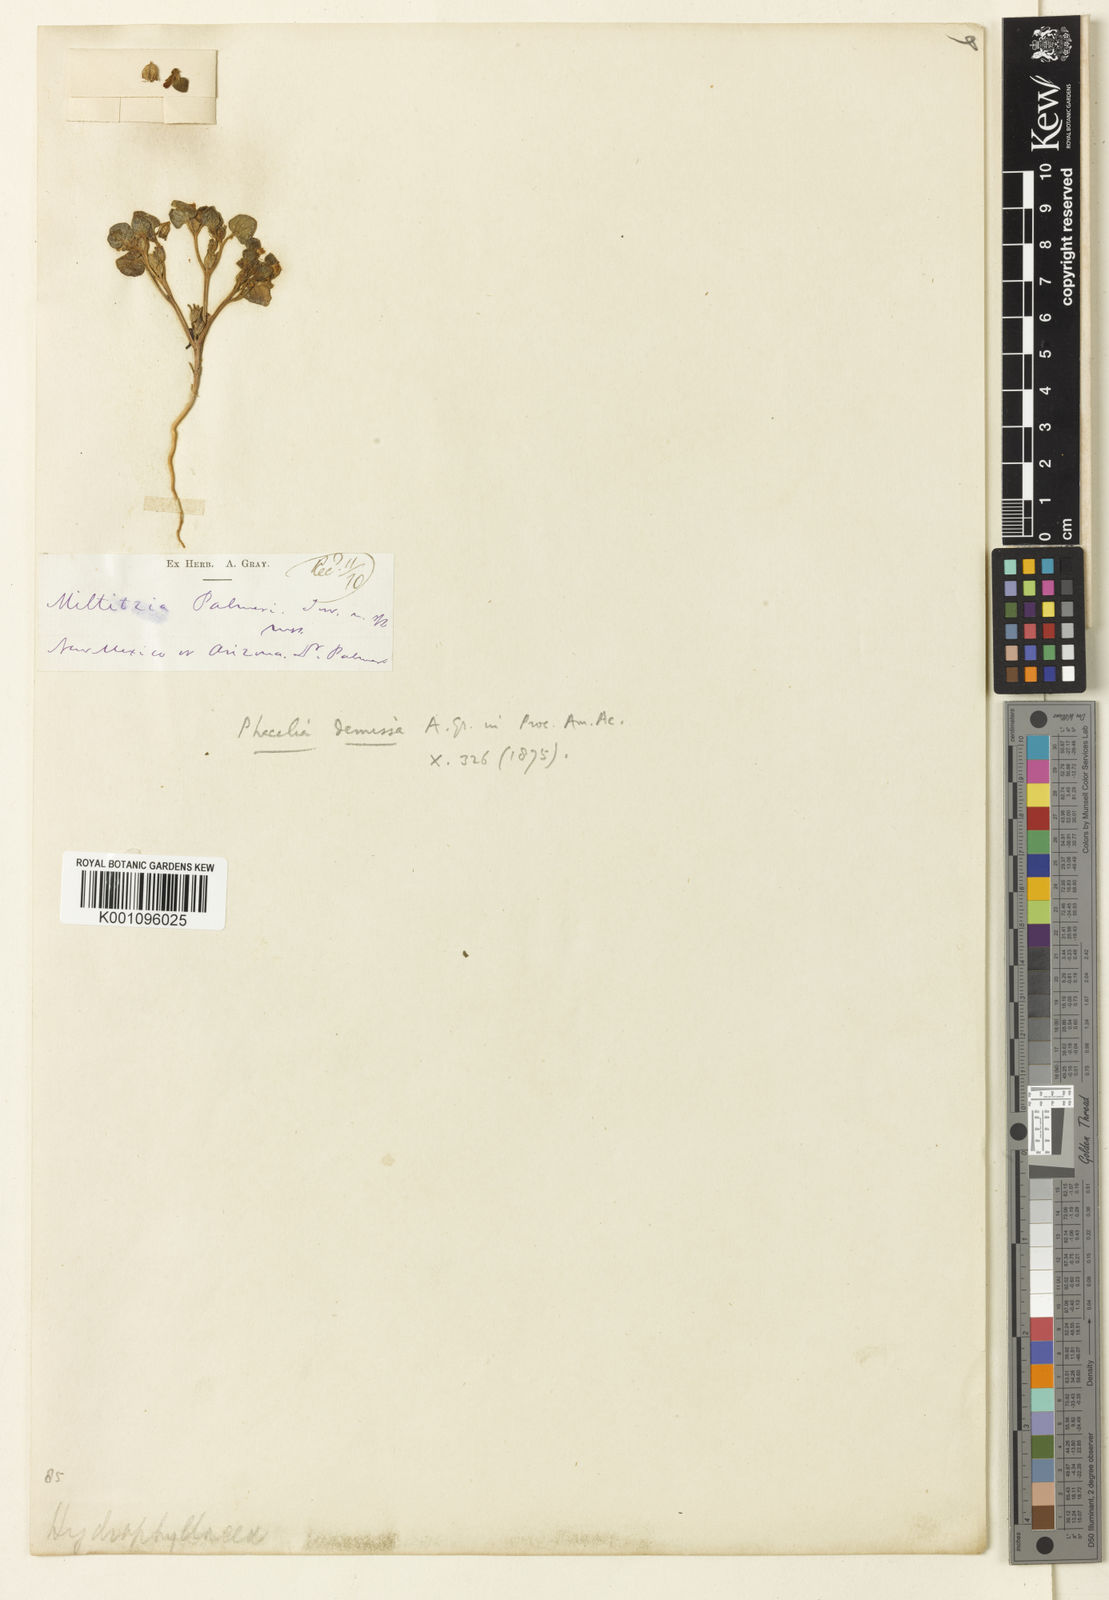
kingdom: Plantae
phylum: Tracheophyta
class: Magnoliopsida
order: Boraginales
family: Hydrophyllaceae
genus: Phacelia
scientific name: Phacelia demissa
